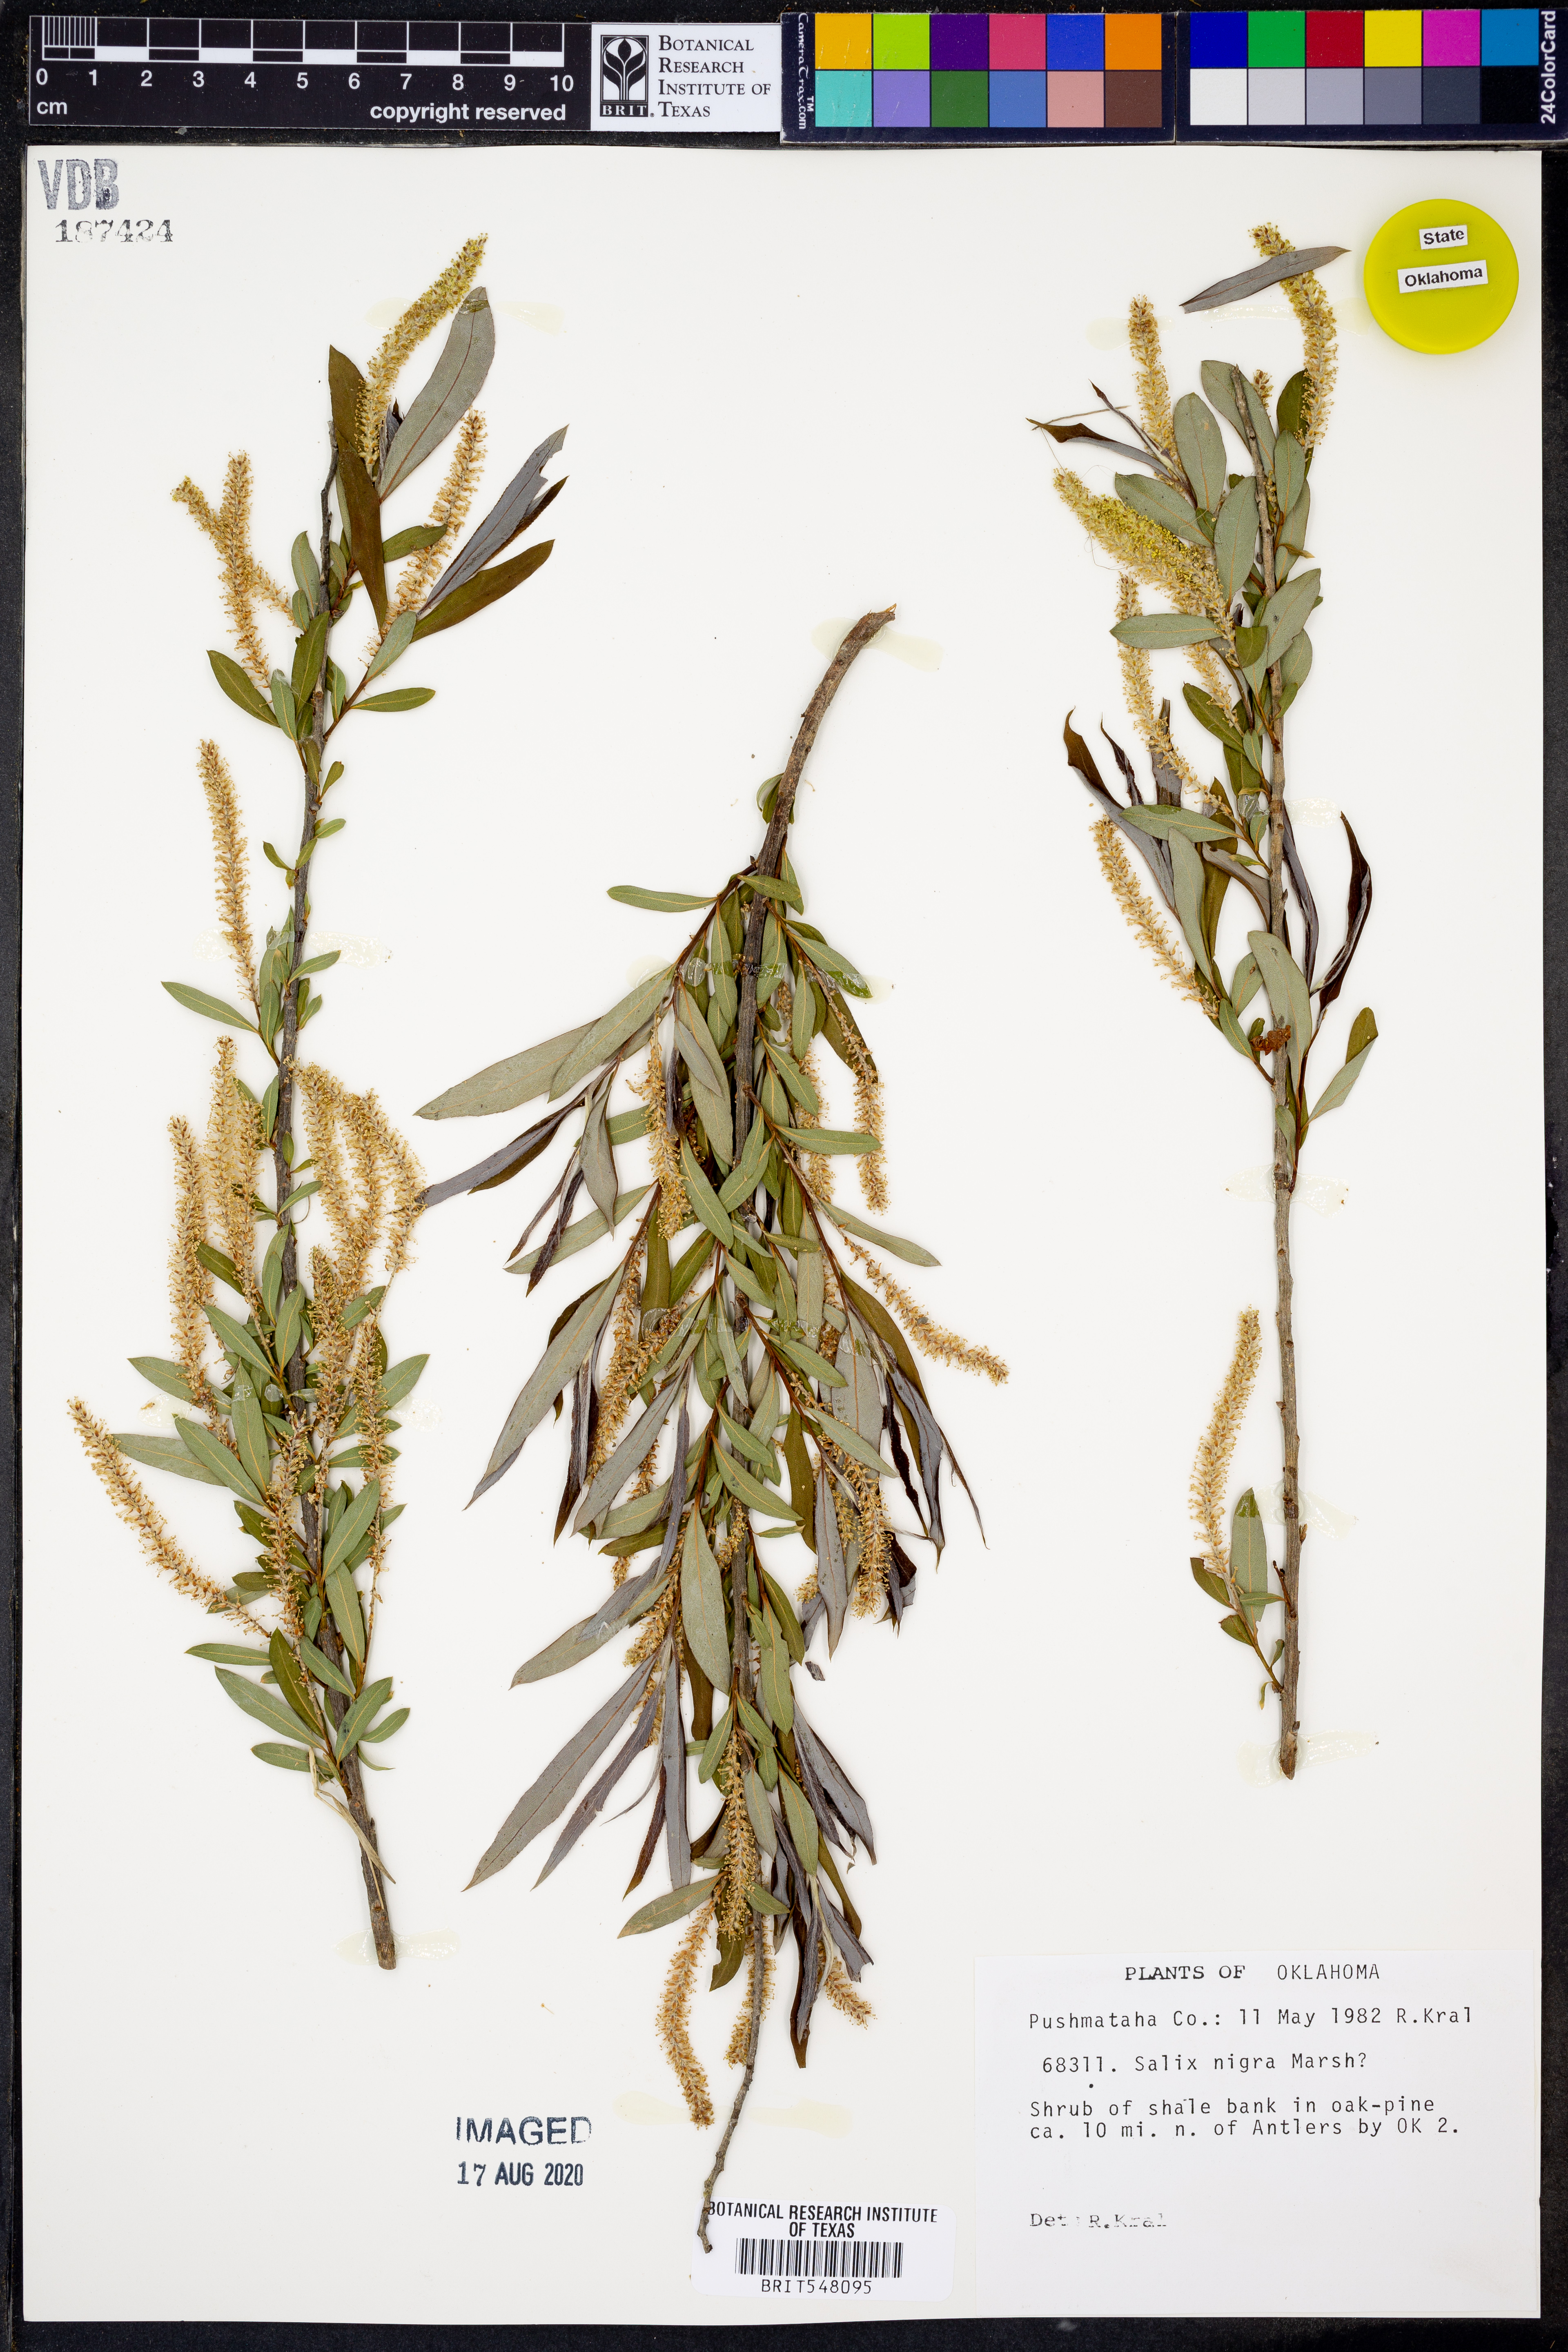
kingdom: Plantae
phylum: Tracheophyta
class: Magnoliopsida
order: Malpighiales
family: Salicaceae
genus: Salix
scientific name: Salix nigra
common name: Black willow
